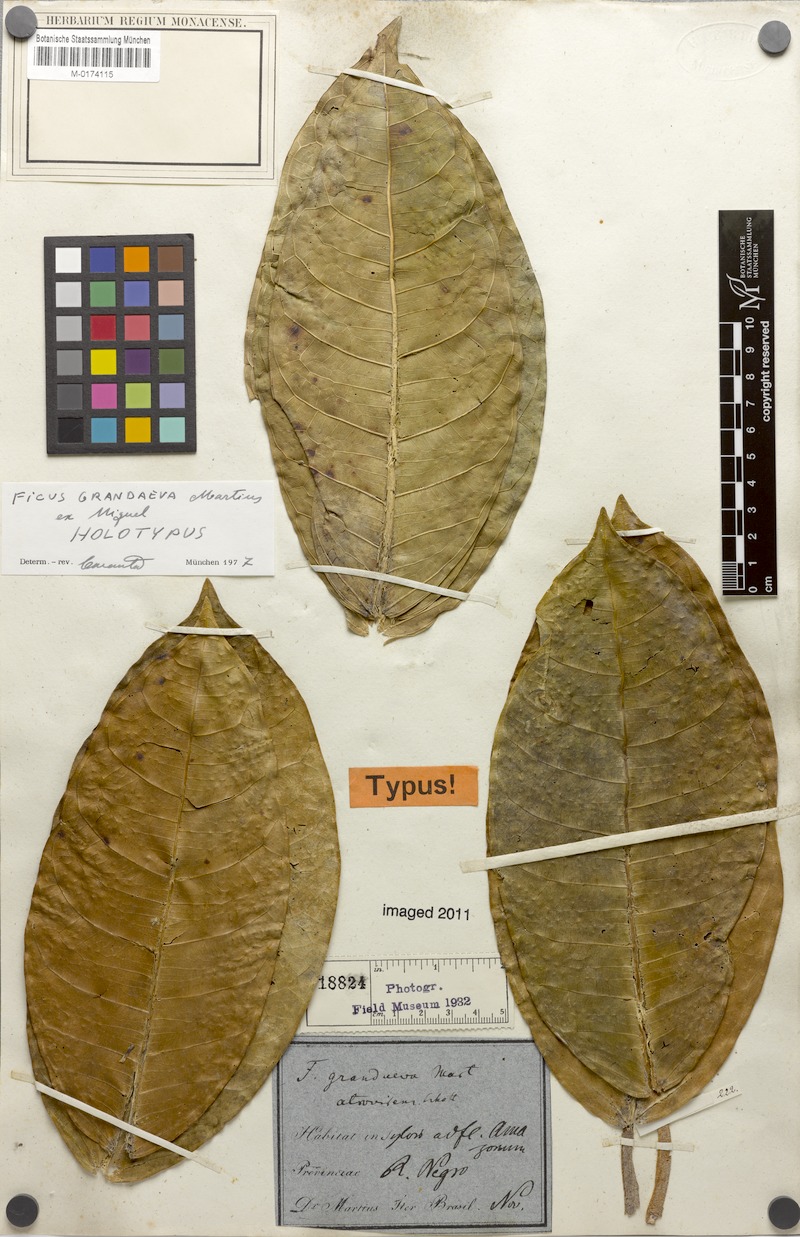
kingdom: Plantae
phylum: Tracheophyta
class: Magnoliopsida
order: Rosales
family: Moraceae
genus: Ficus
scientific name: Ficus maxima
